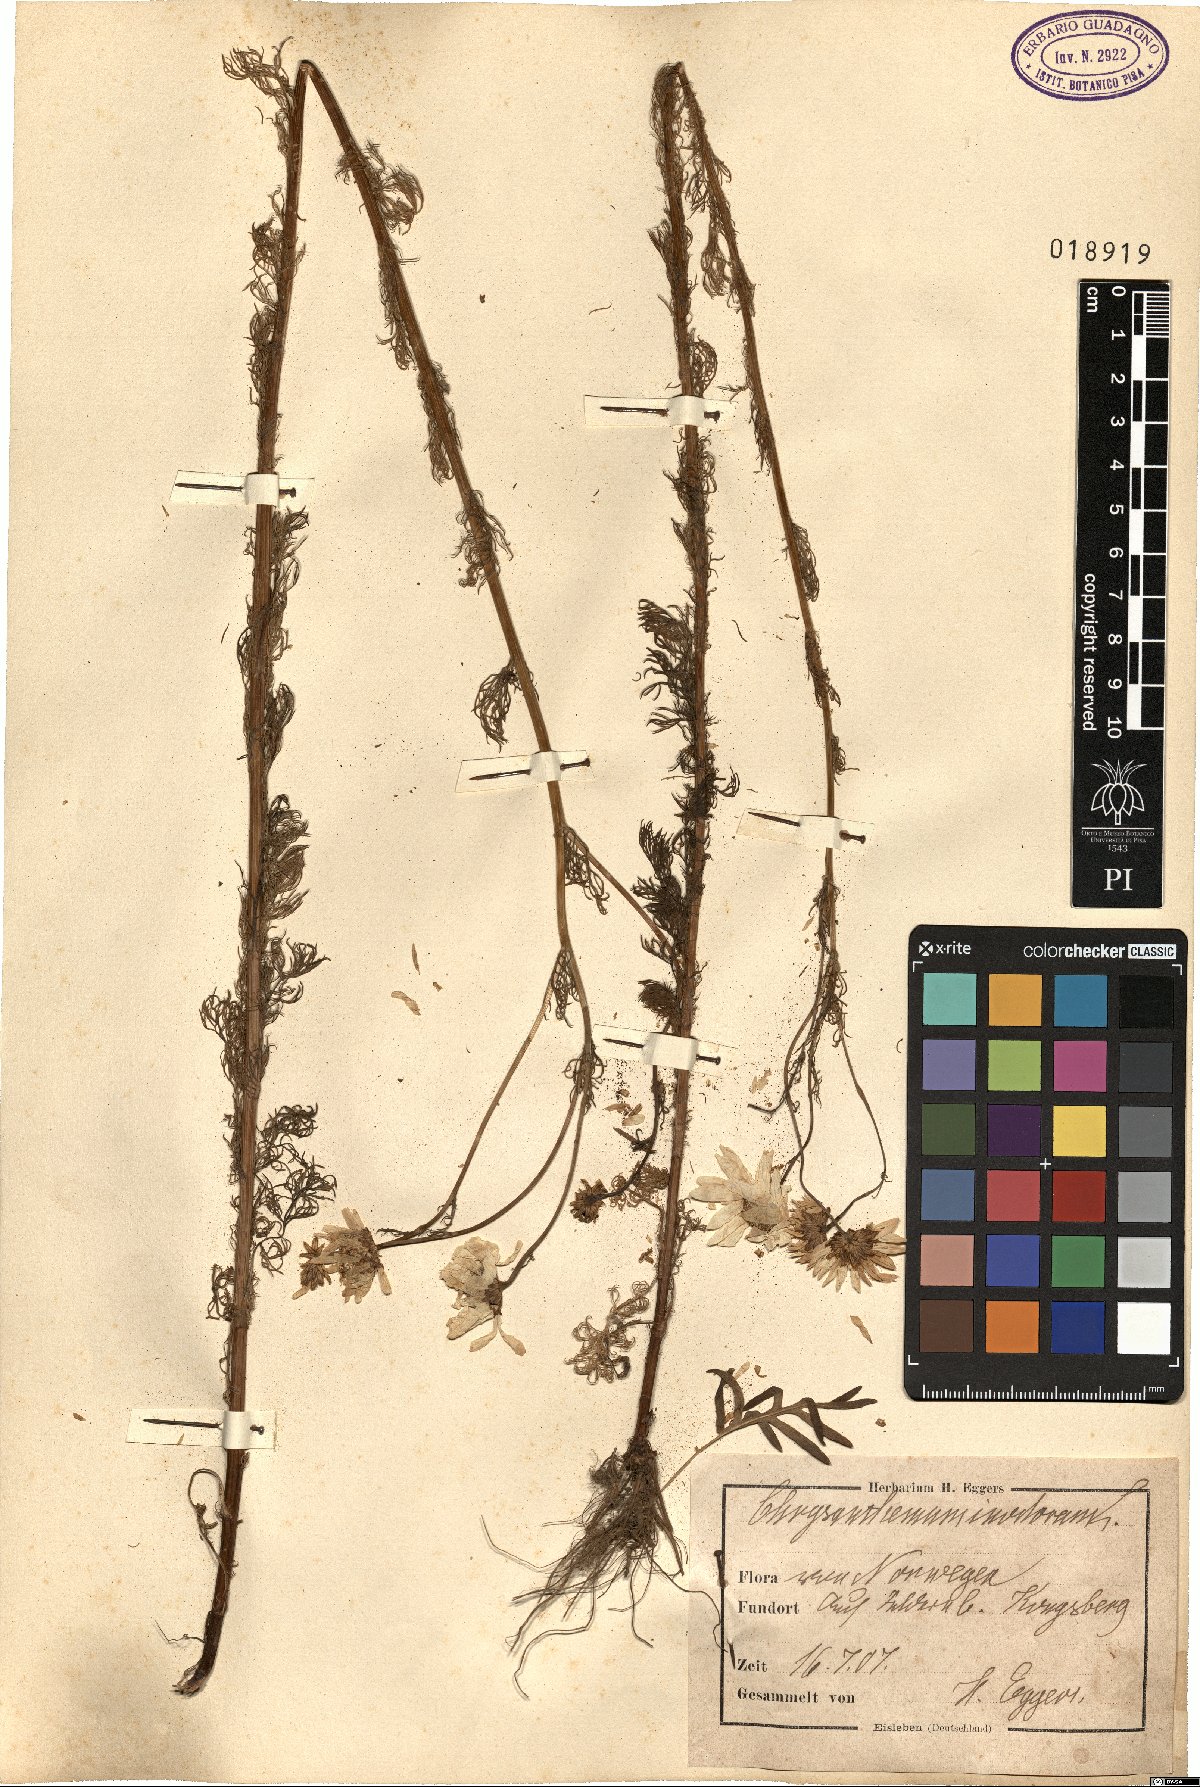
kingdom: Plantae
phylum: Tracheophyta
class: Magnoliopsida
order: Asterales
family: Asteraceae
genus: Tripleurospermum
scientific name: Tripleurospermum inodorum
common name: Scentless mayweed
